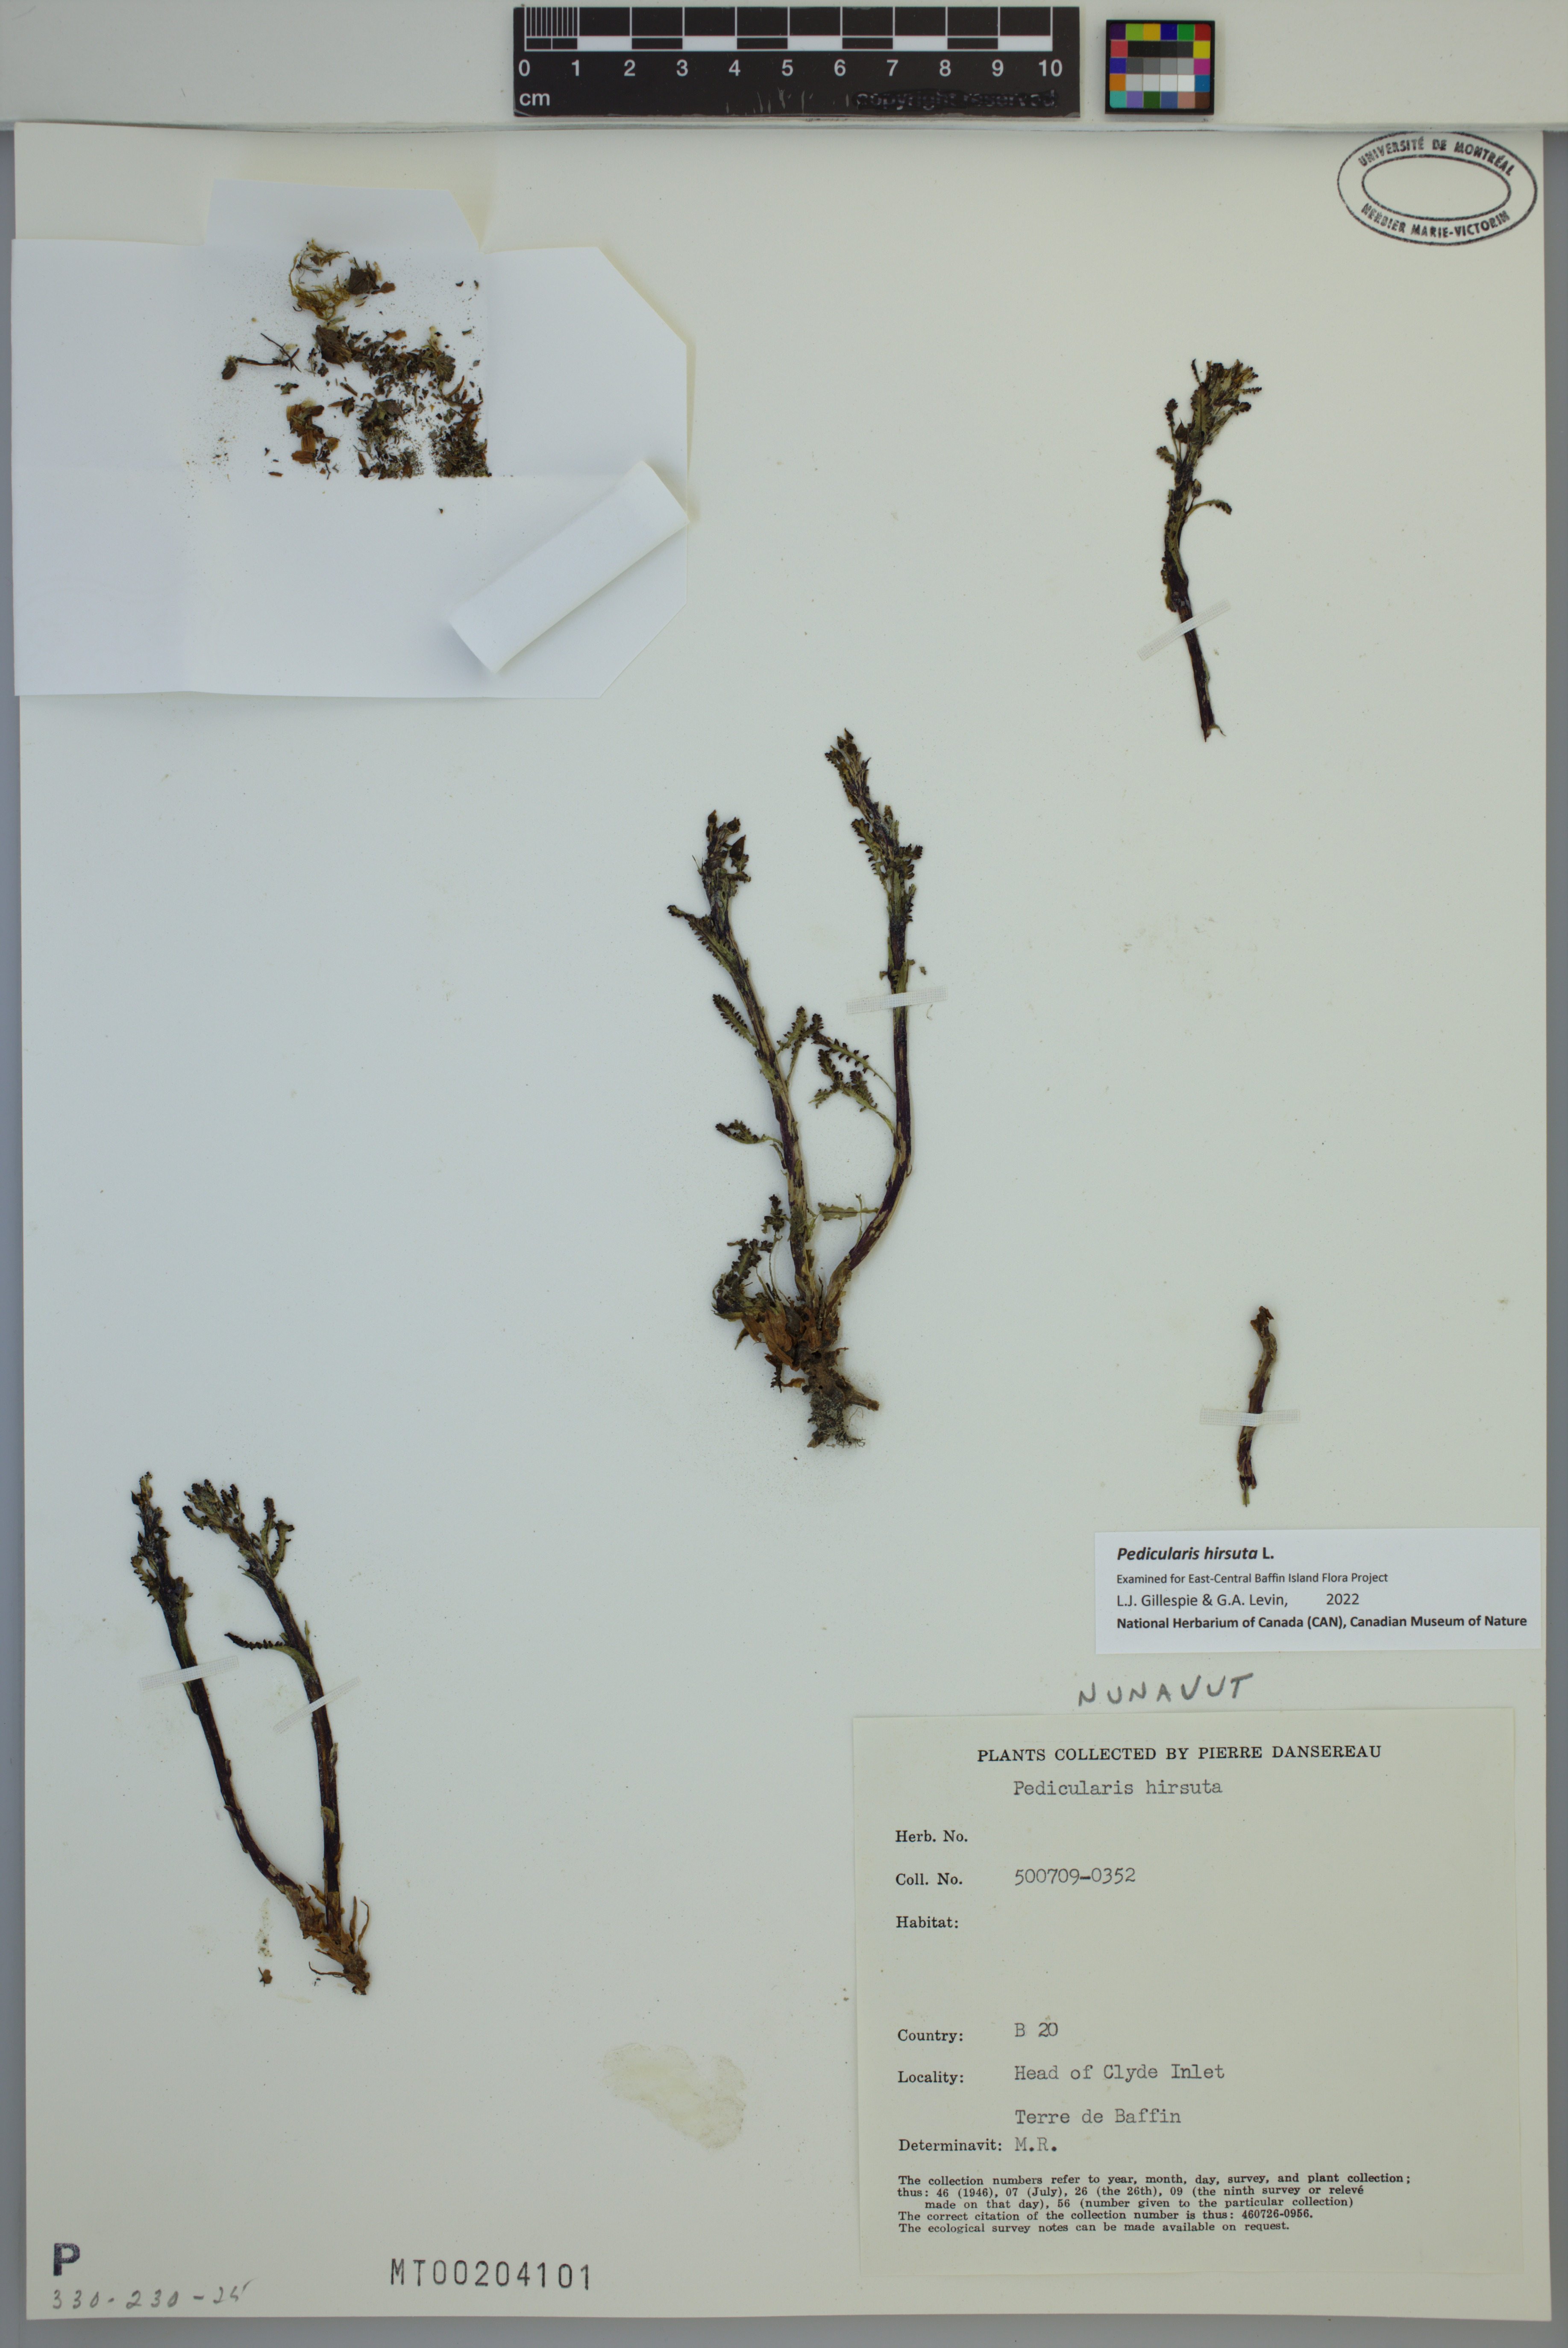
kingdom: Plantae
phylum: Tracheophyta
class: Magnoliopsida
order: Lamiales
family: Orobanchaceae
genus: Pedicularis
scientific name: Pedicularis hirsuta
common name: Hairy lousewort
